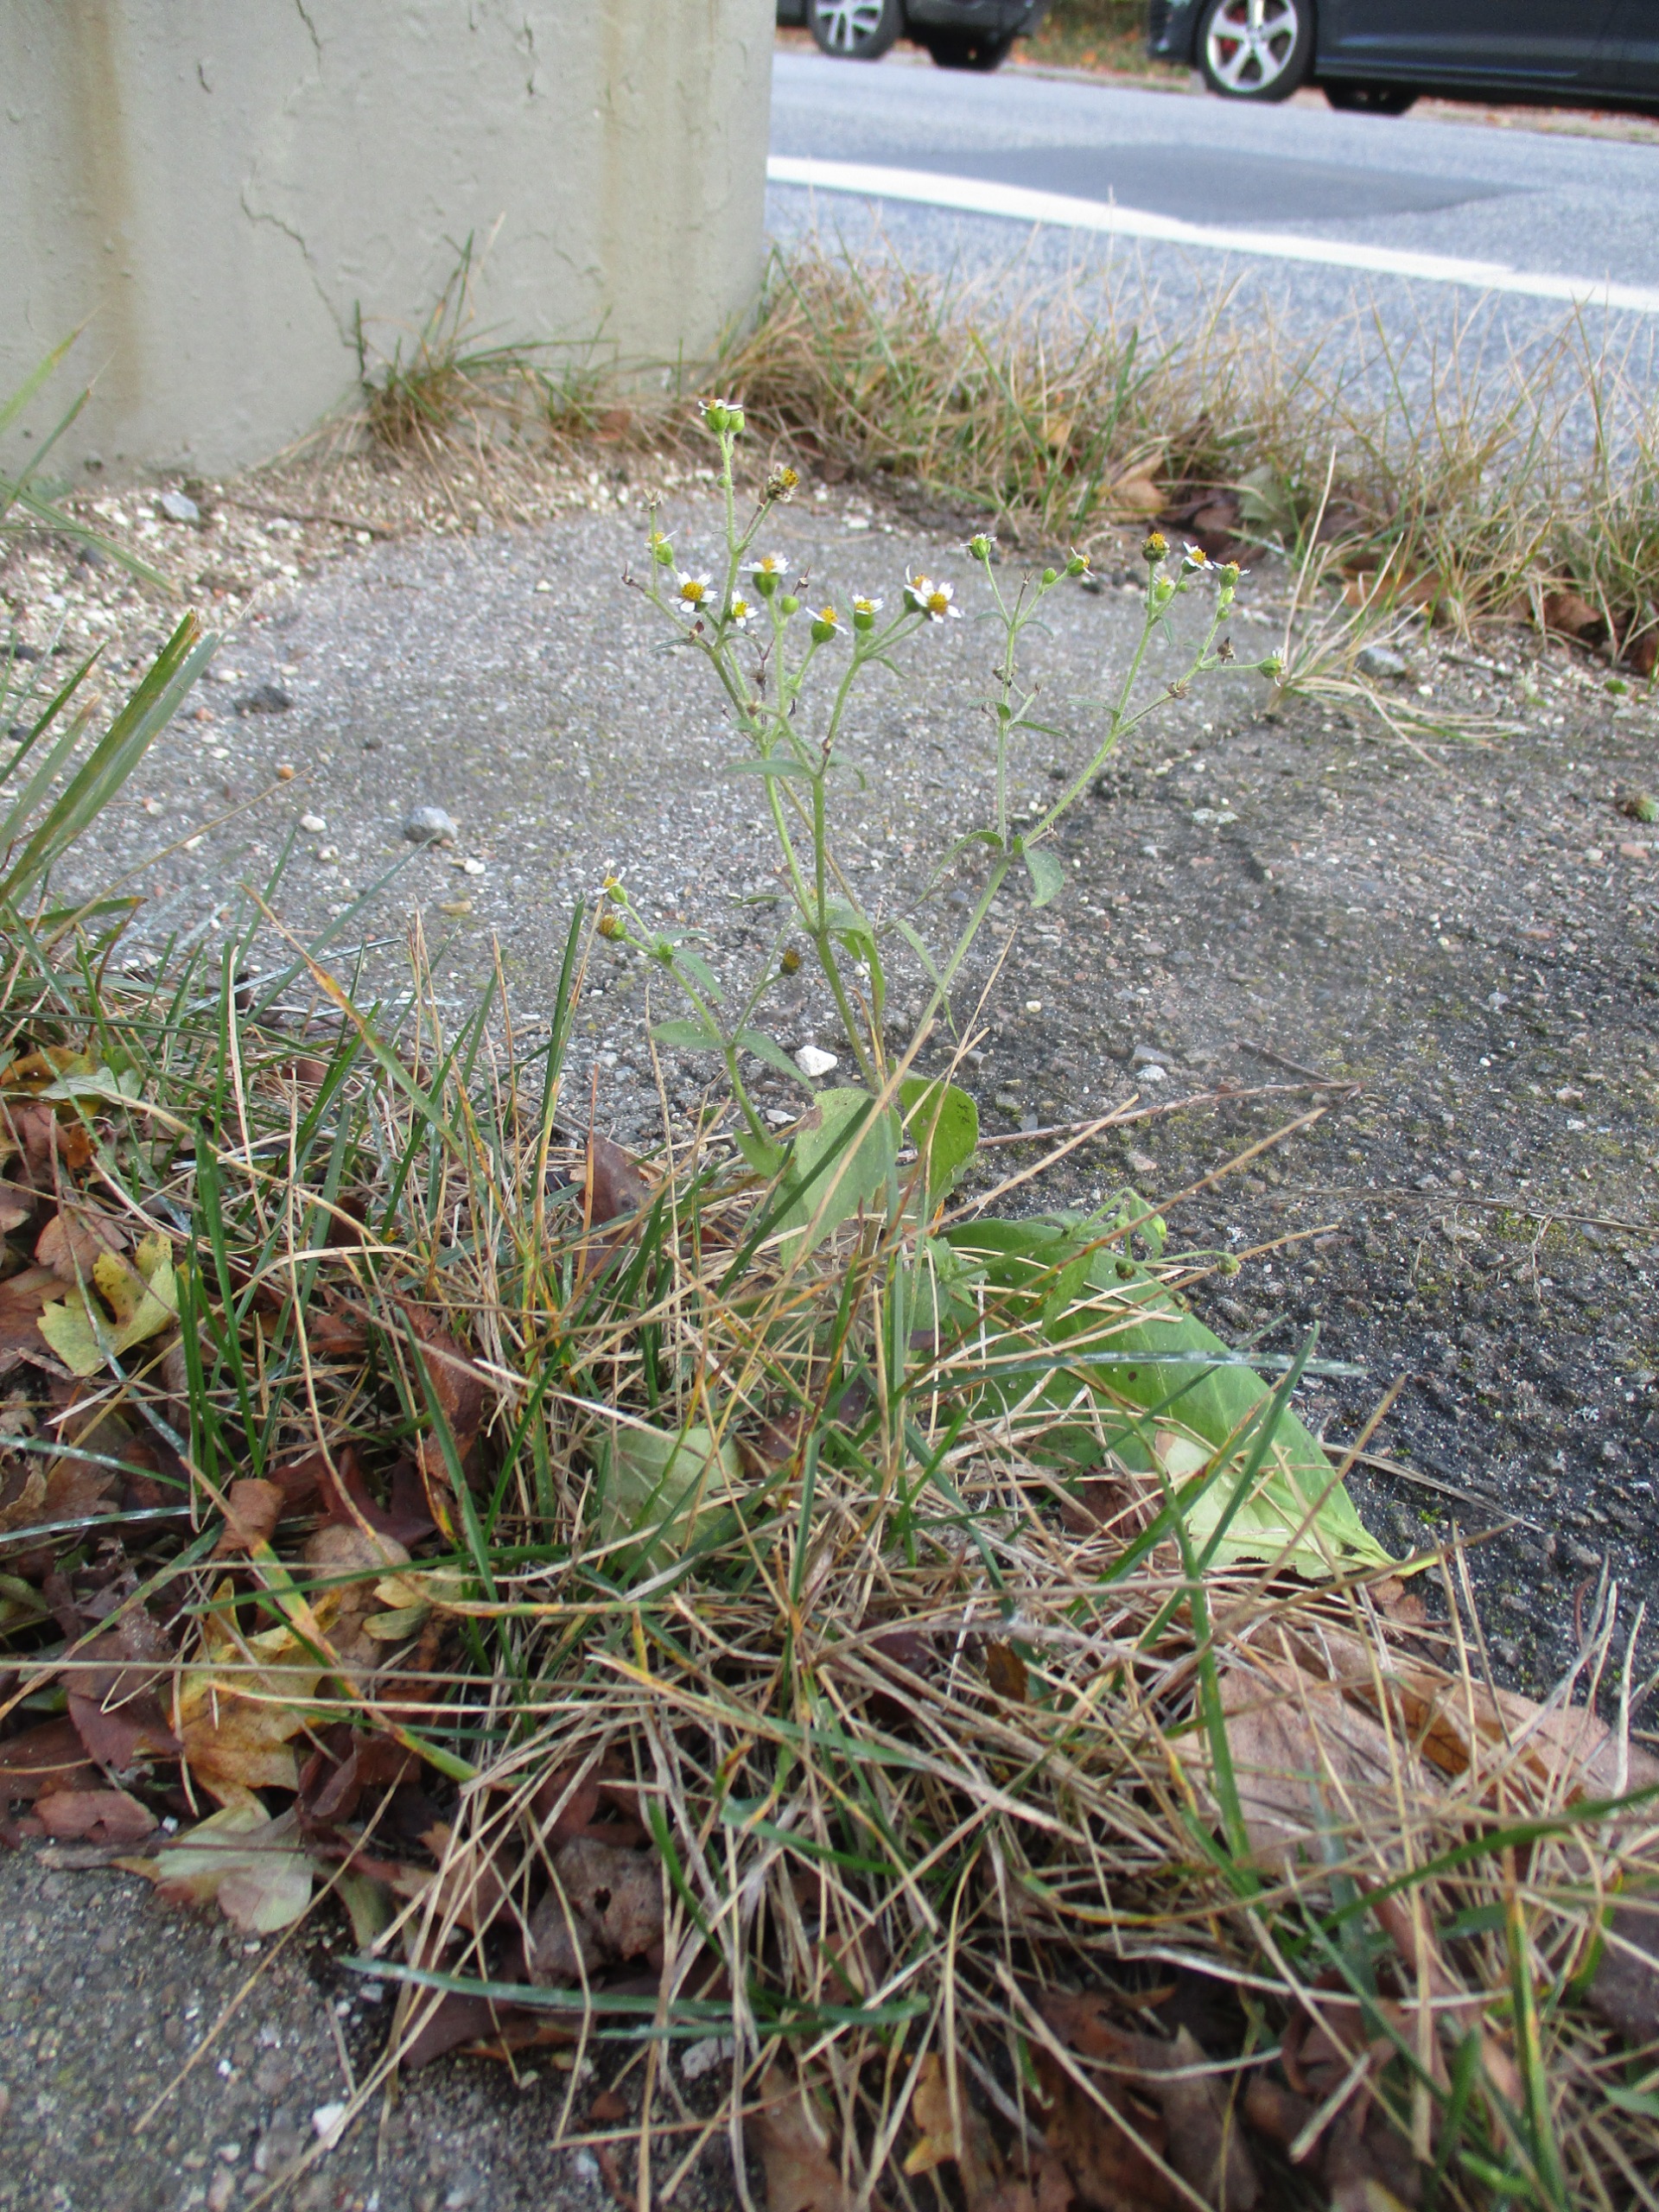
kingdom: Plantae
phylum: Tracheophyta
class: Magnoliopsida
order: Asterales
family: Asteraceae
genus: Galinsoga
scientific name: Galinsoga quadriradiata
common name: Kirtel-kortstråle
